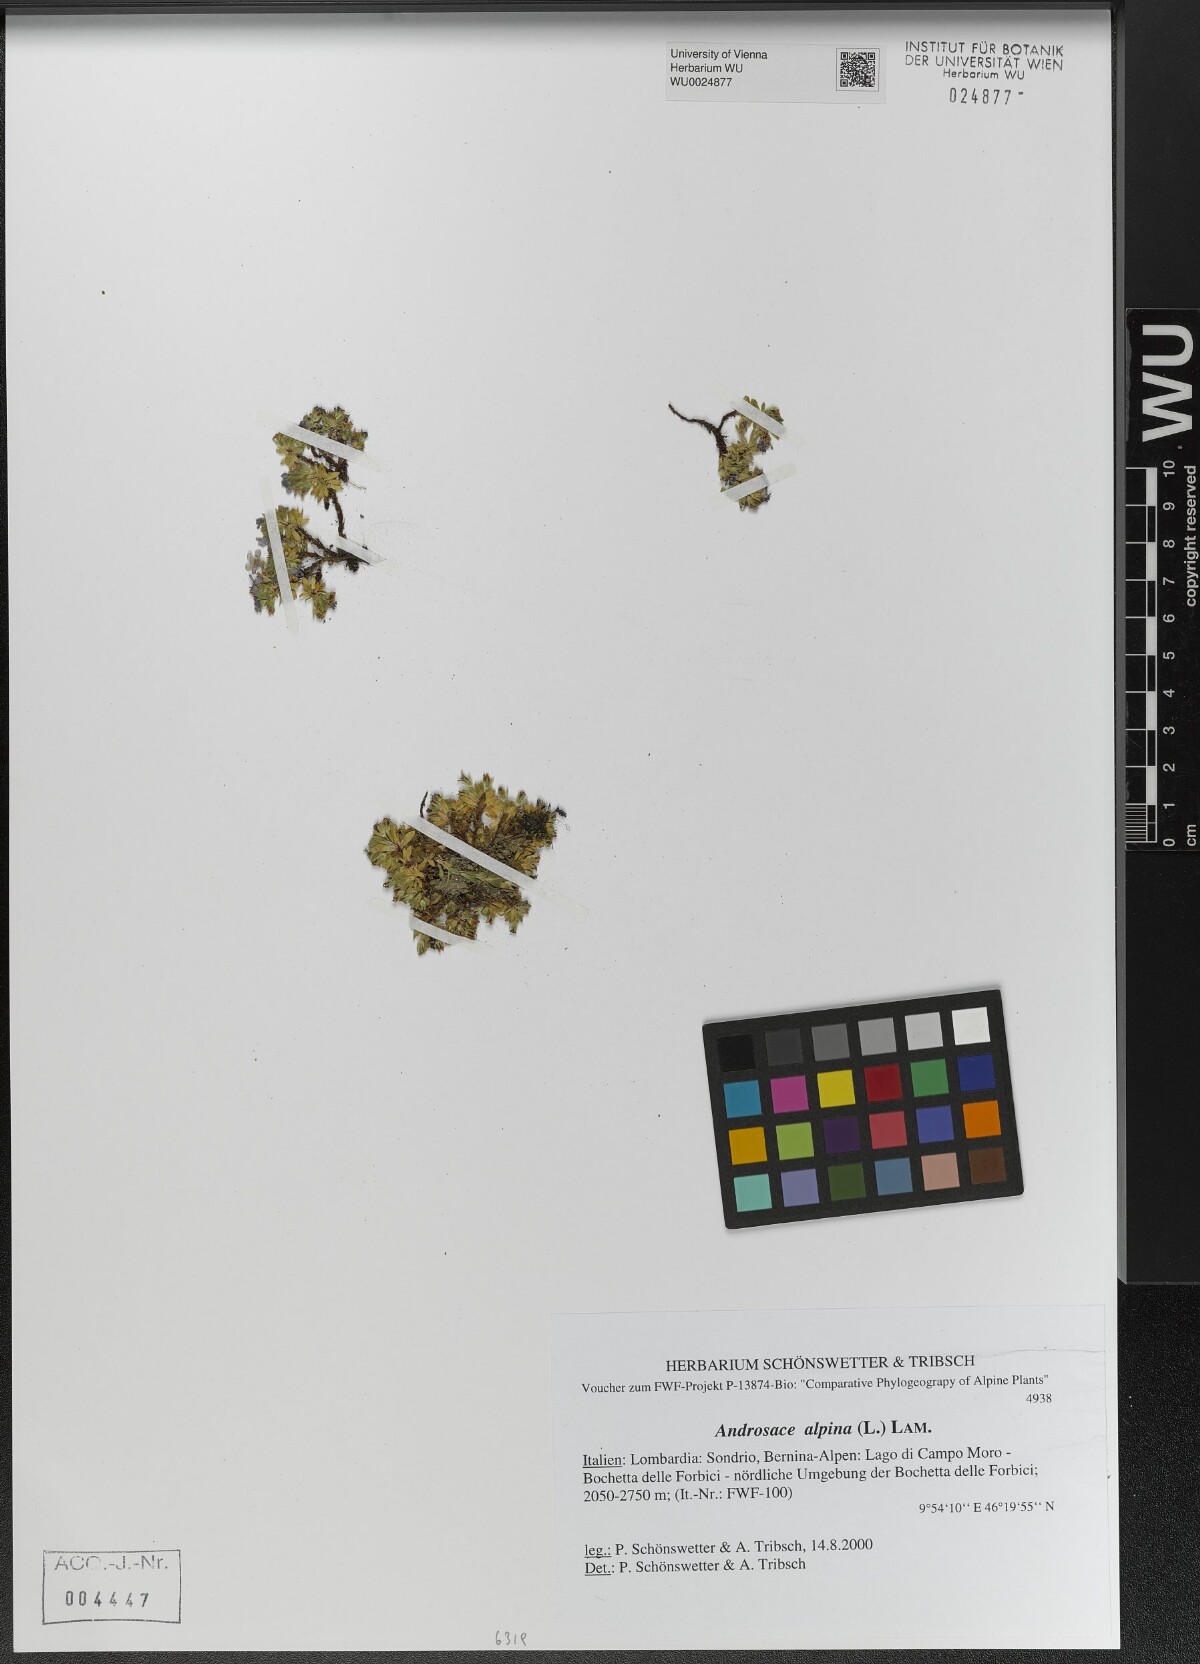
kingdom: Plantae
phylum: Tracheophyta
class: Magnoliopsida
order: Ericales
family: Primulaceae
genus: Androsace
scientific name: Androsace alpina
